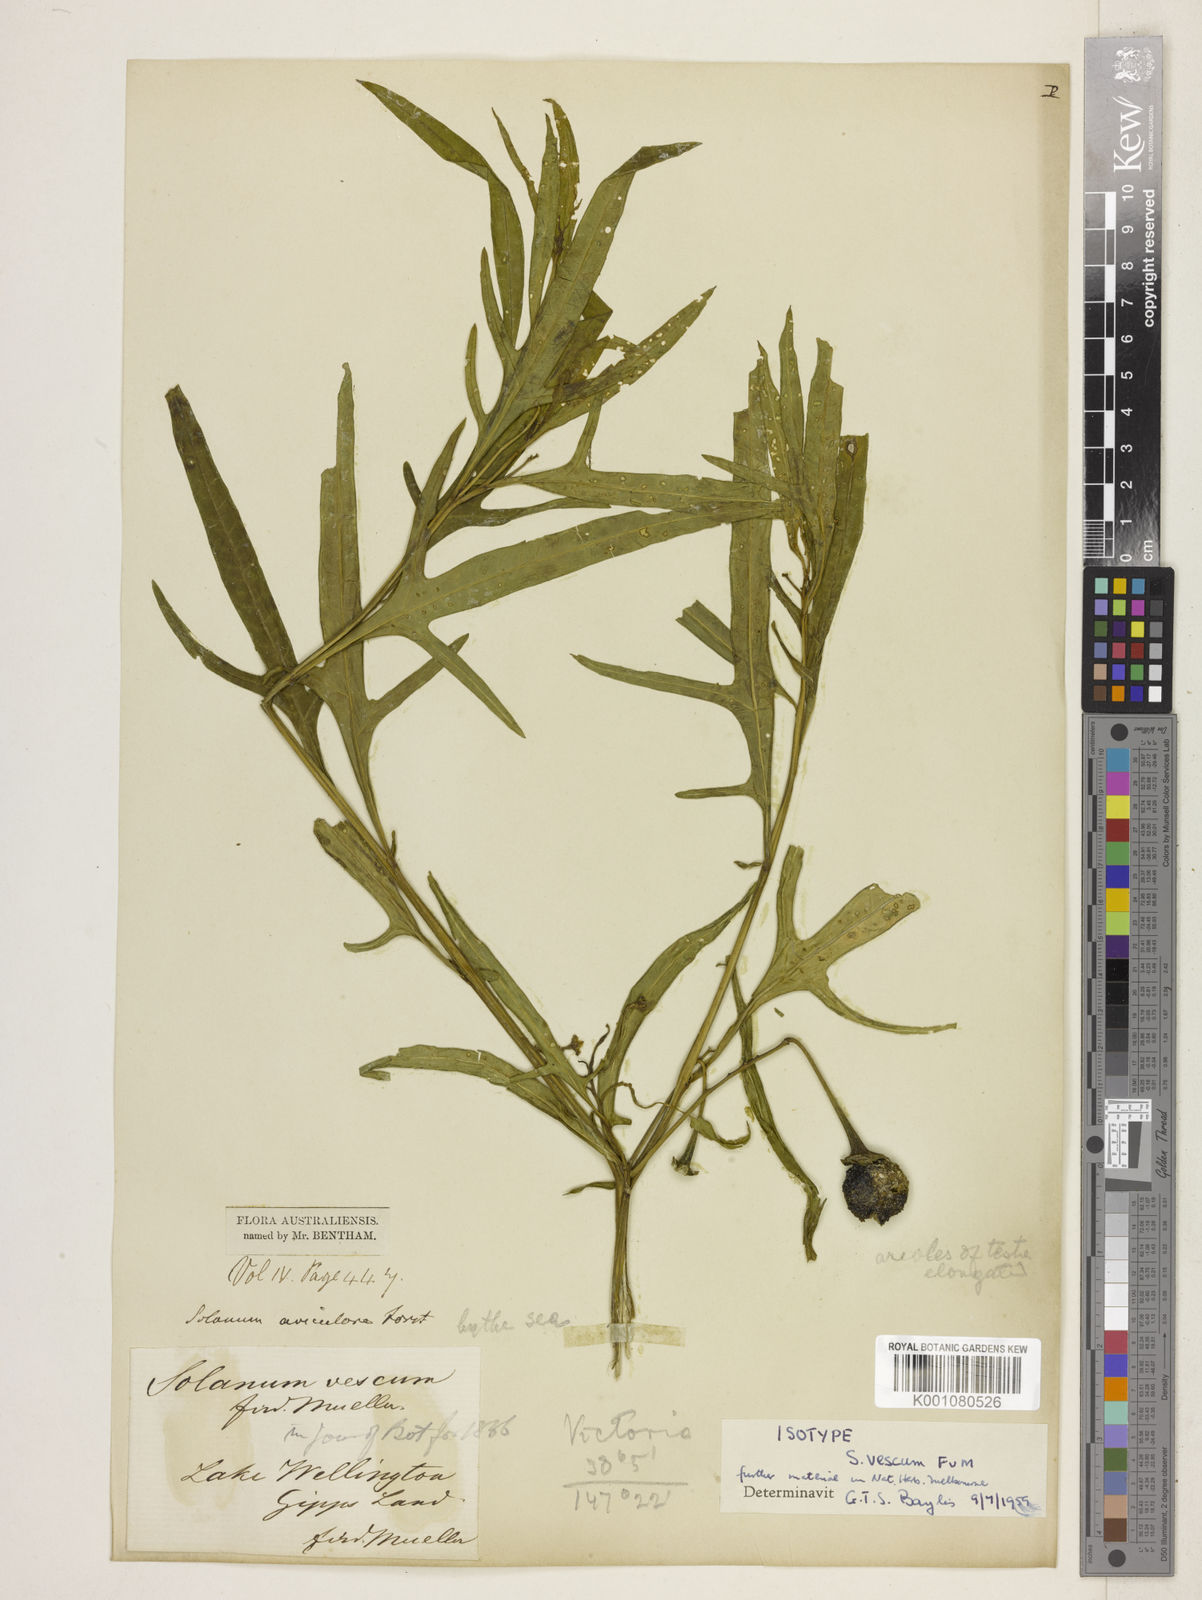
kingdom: Plantae
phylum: Tracheophyta
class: Magnoliopsida
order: Solanales
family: Solanaceae
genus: Solanum
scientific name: Solanum vescum
